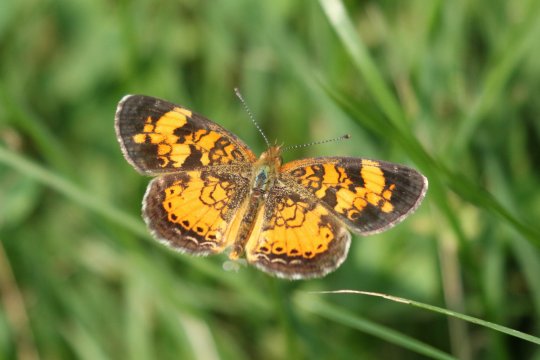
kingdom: Animalia
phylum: Arthropoda
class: Insecta
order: Lepidoptera
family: Nymphalidae
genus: Phyciodes
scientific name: Phyciodes tharos
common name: Pearl Crescent
